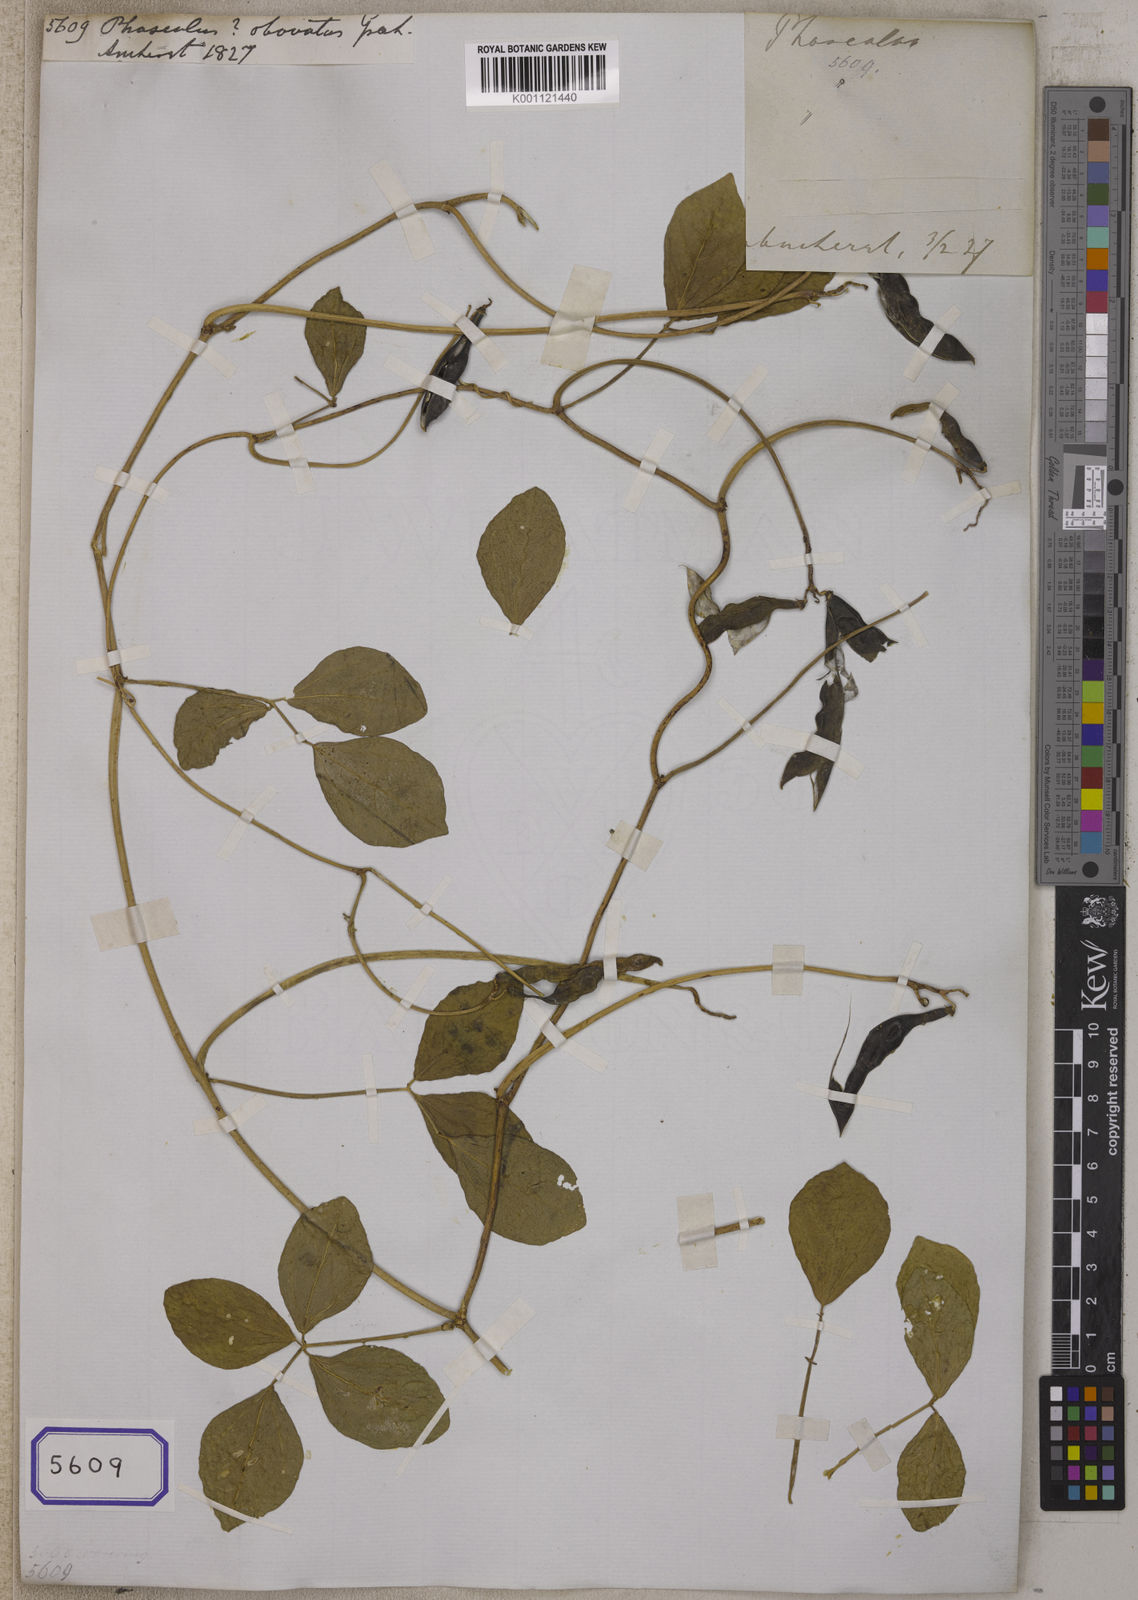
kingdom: Plantae
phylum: Tracheophyta
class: Magnoliopsida
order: Fabales
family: Fabaceae
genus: Vigna
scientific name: Vigna marina
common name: Dune-bean
